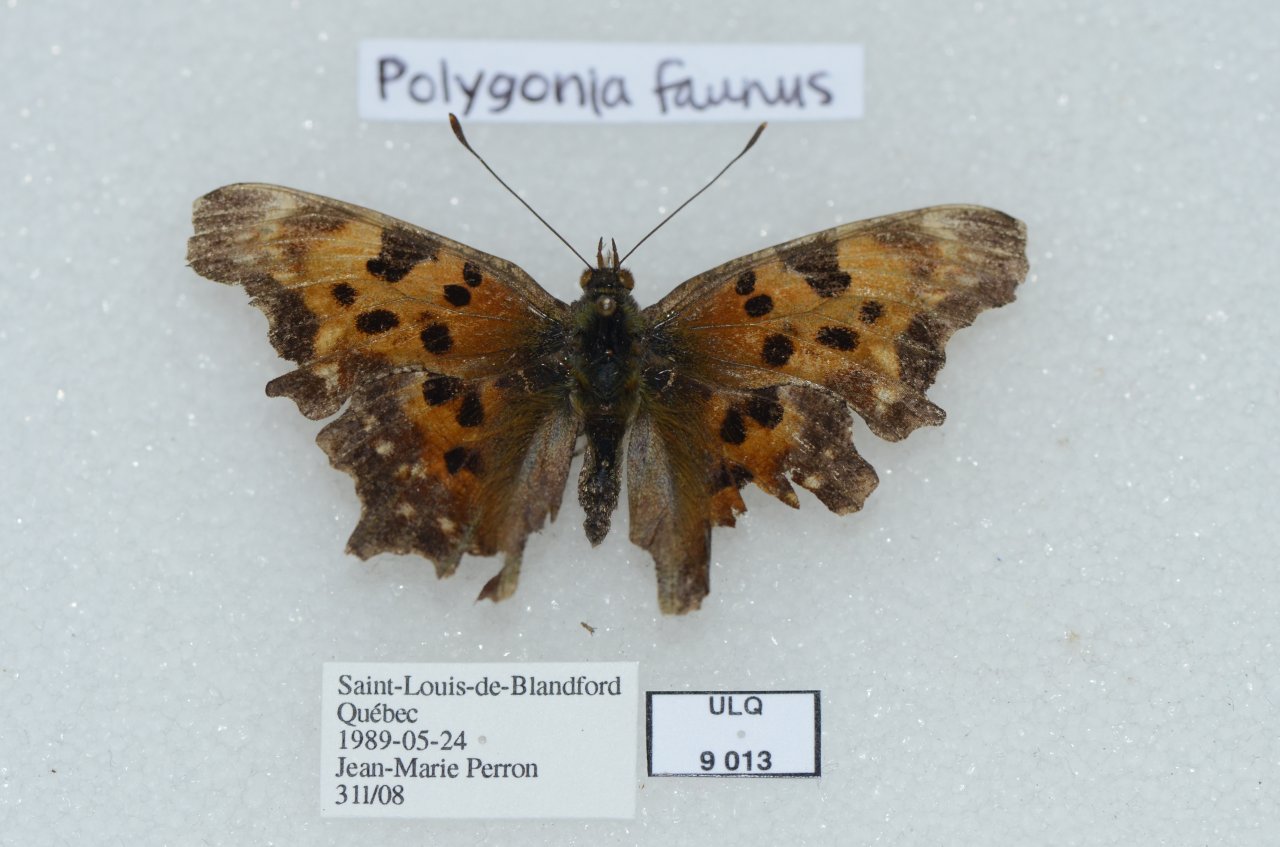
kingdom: Animalia
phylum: Arthropoda
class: Insecta
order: Lepidoptera
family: Nymphalidae
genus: Polygonia
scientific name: Polygonia faunus
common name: Green Comma
